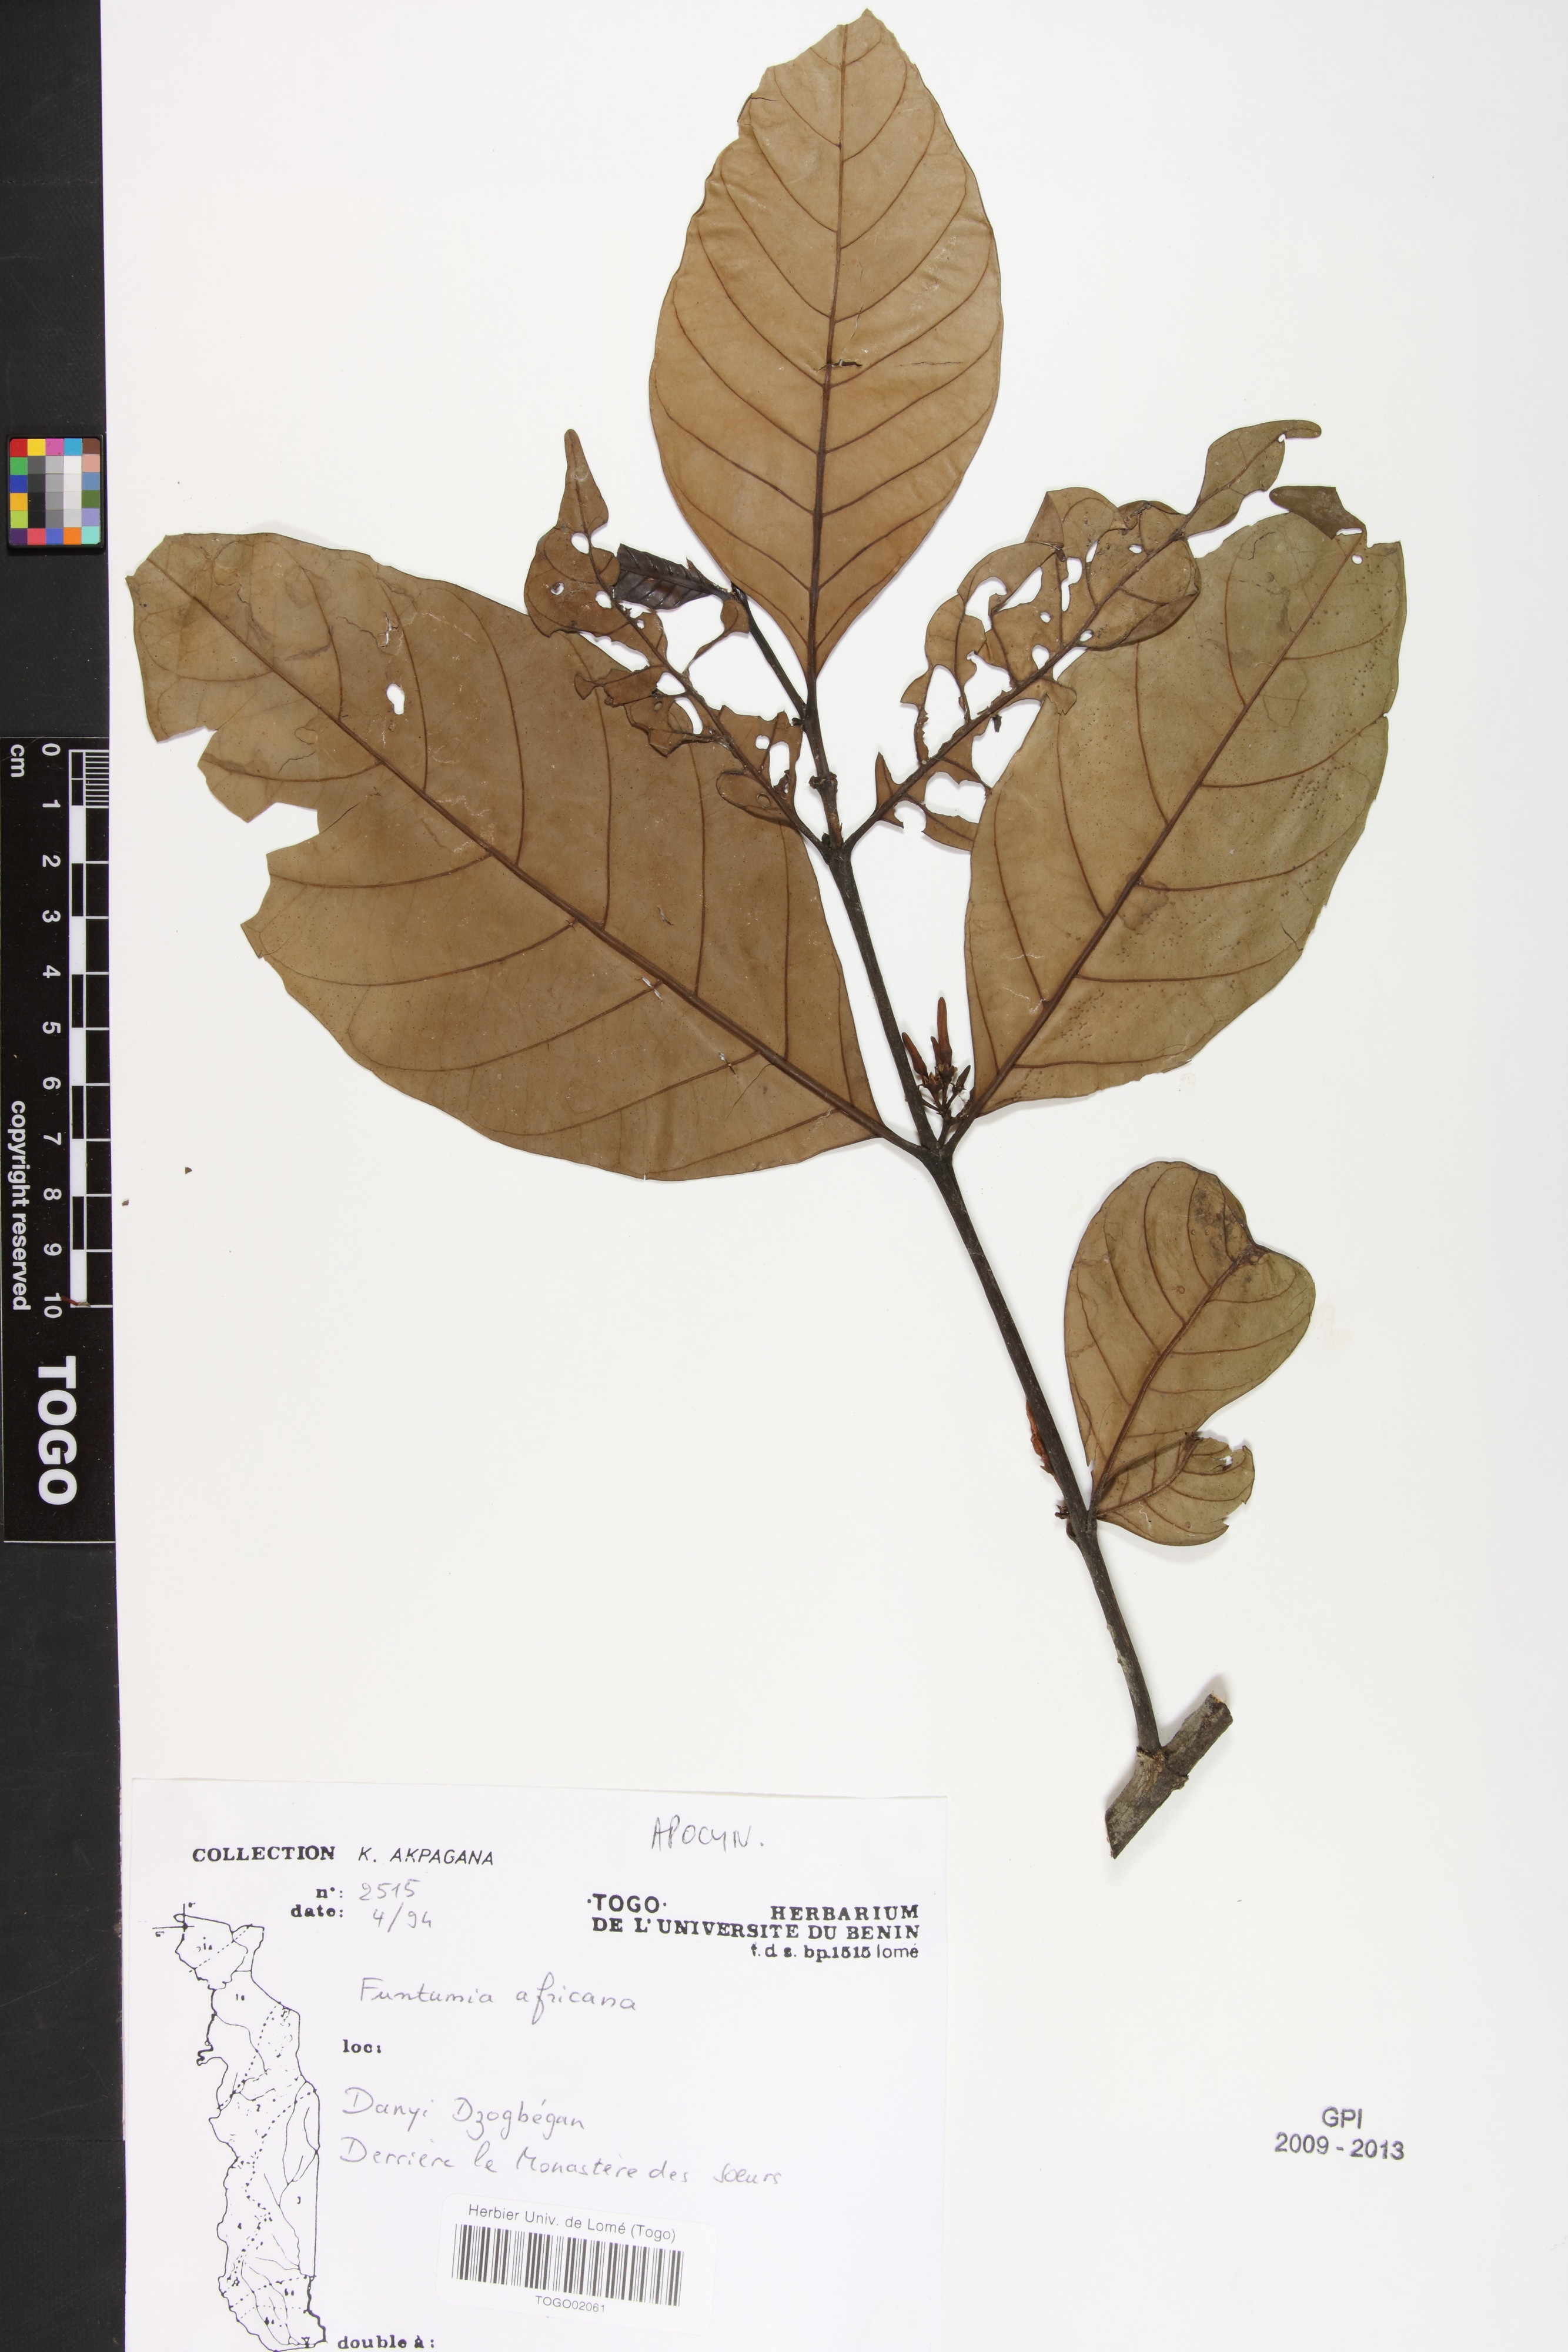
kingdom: Plantae
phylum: Tracheophyta
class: Magnoliopsida
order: Gentianales
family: Apocynaceae
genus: Funtumia
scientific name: Funtumia africana
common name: Lagos-rubber
